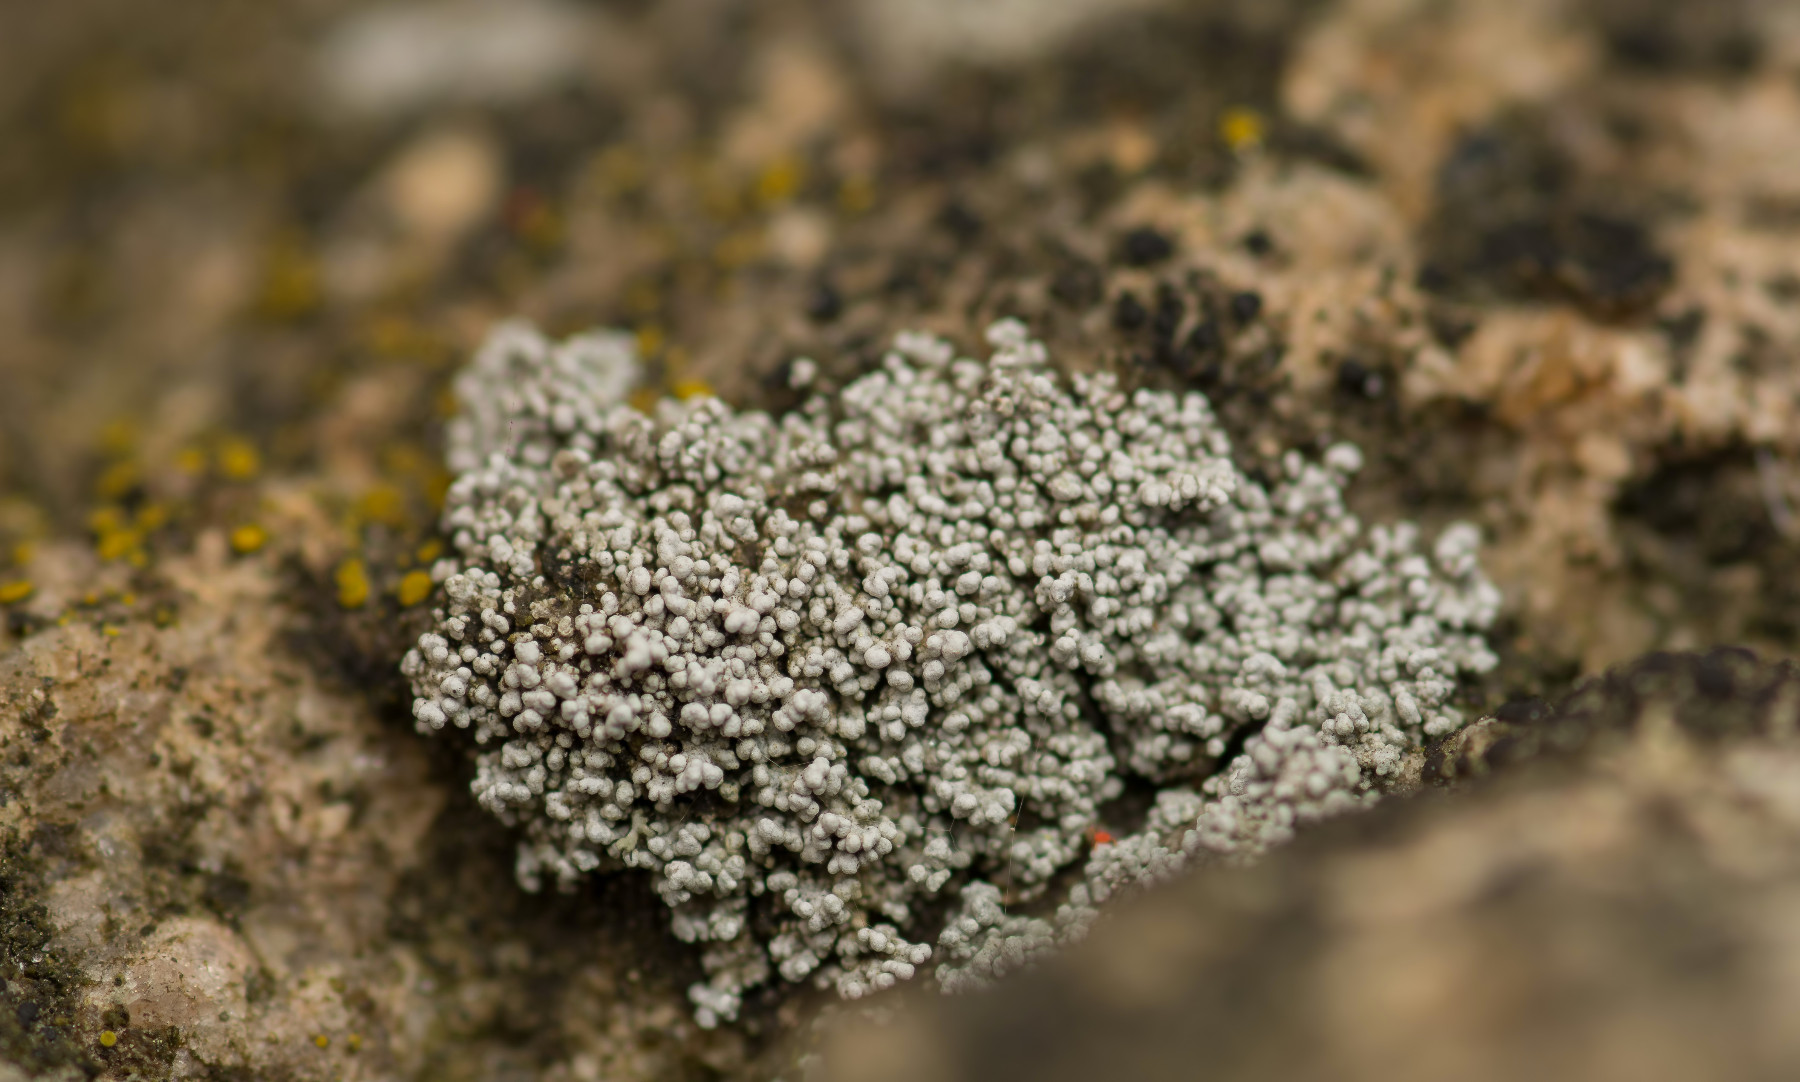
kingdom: Fungi
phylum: Ascomycota
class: Lecanoromycetes
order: Lecanorales
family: Stereocaulaceae
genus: Stereocaulon
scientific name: Stereocaulon
